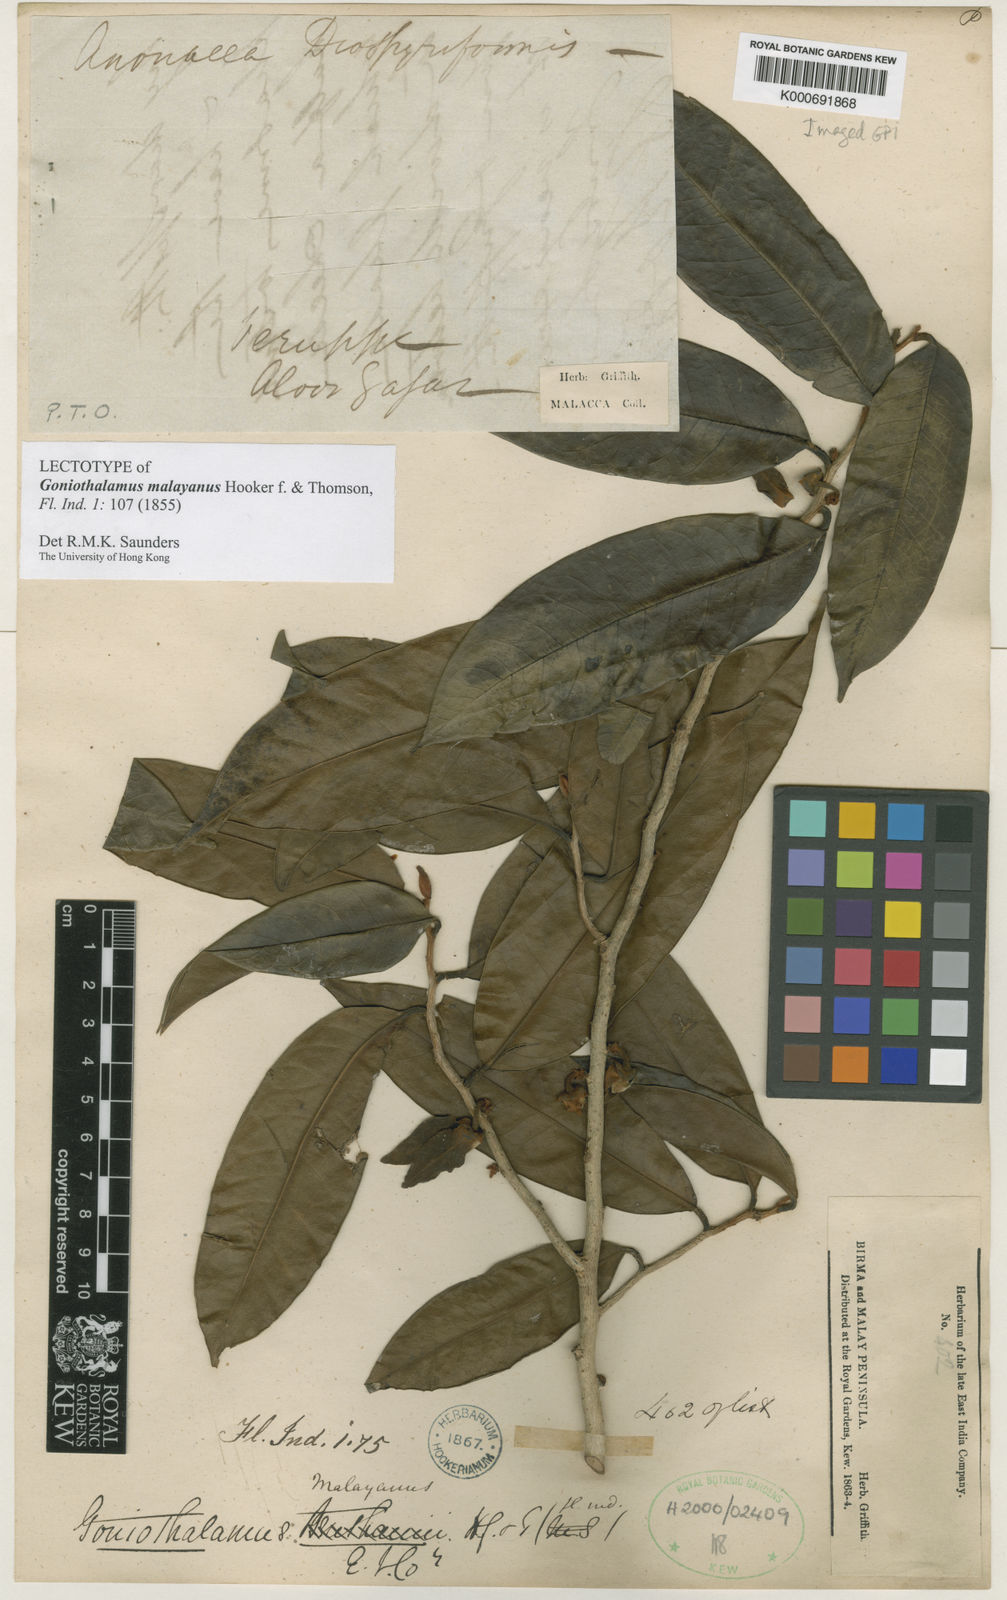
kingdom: Plantae
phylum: Tracheophyta
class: Magnoliopsida
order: Magnoliales
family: Annonaceae
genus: Goniothalamus
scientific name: Goniothalamus malayanus
